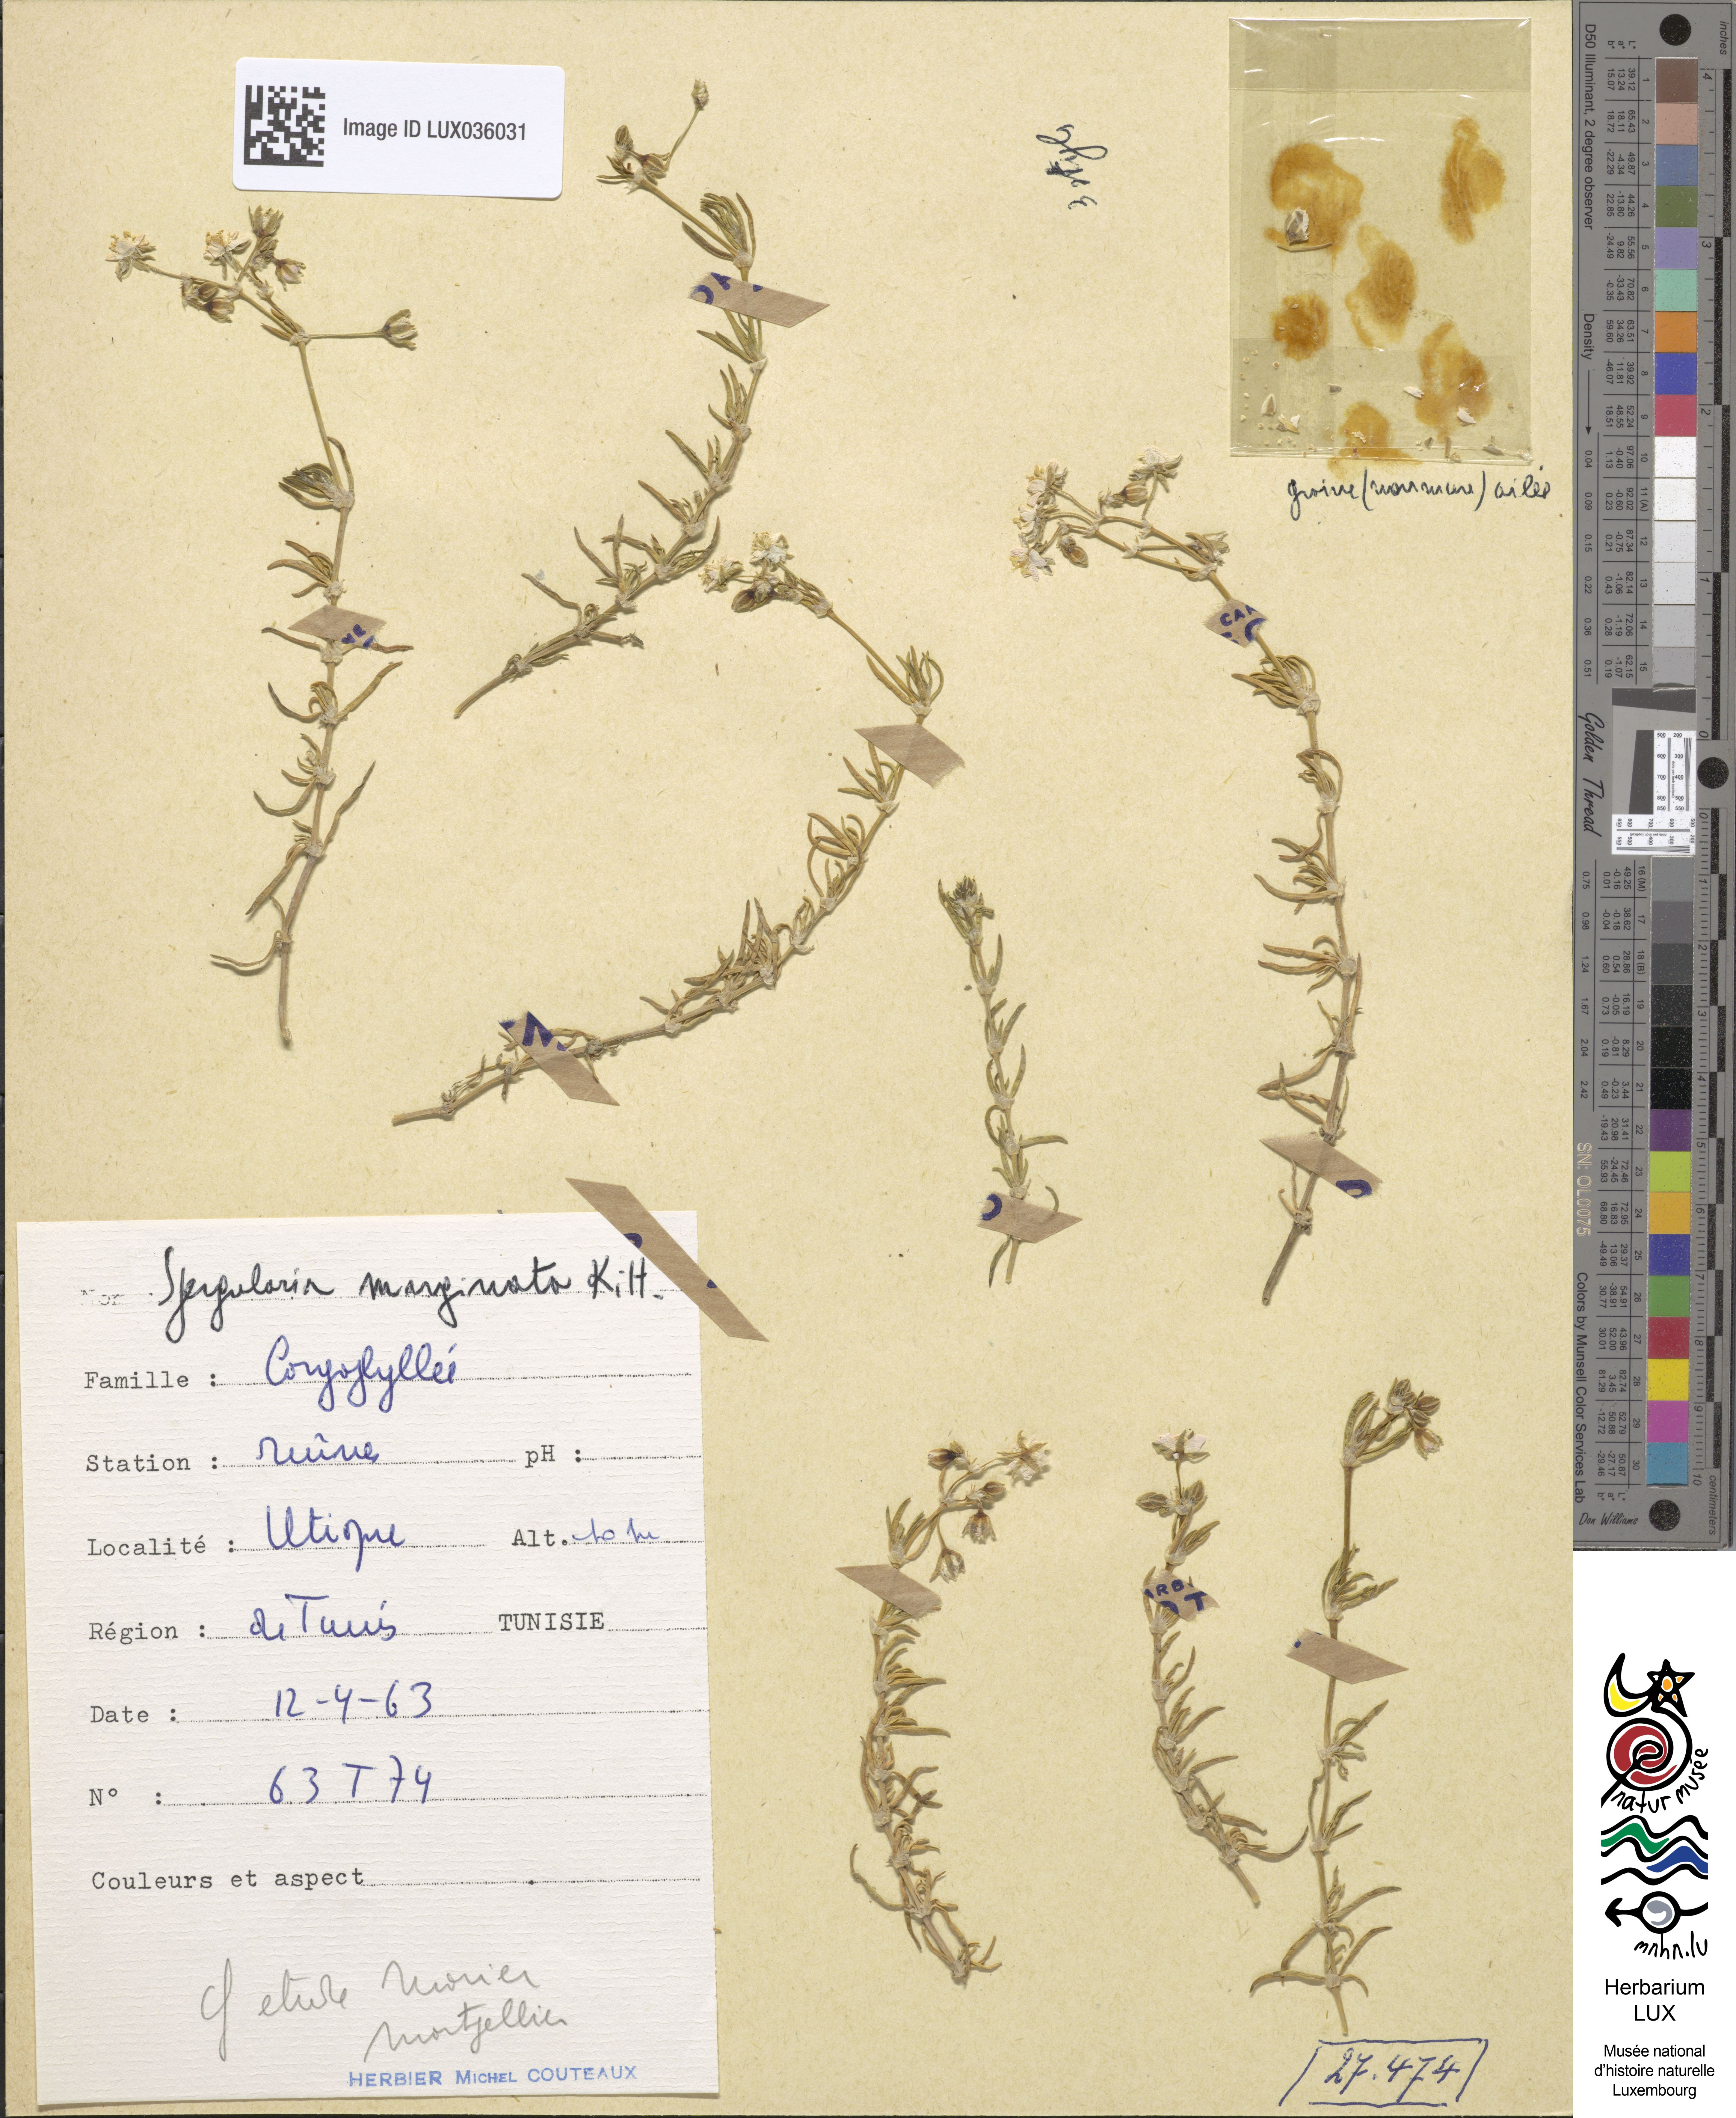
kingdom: Plantae
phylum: Tracheophyta
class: Magnoliopsida
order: Caryophyllales
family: Caryophyllaceae
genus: Spergularia
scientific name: Spergularia media
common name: Greater sea-spurrey
